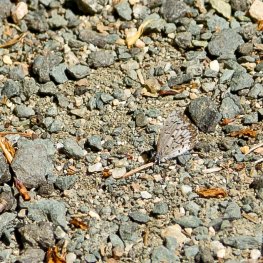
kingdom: Animalia
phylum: Arthropoda
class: Insecta
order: Lepidoptera
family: Lycaenidae
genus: Celastrina
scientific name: Celastrina lucia
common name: Northern Spring Azure
